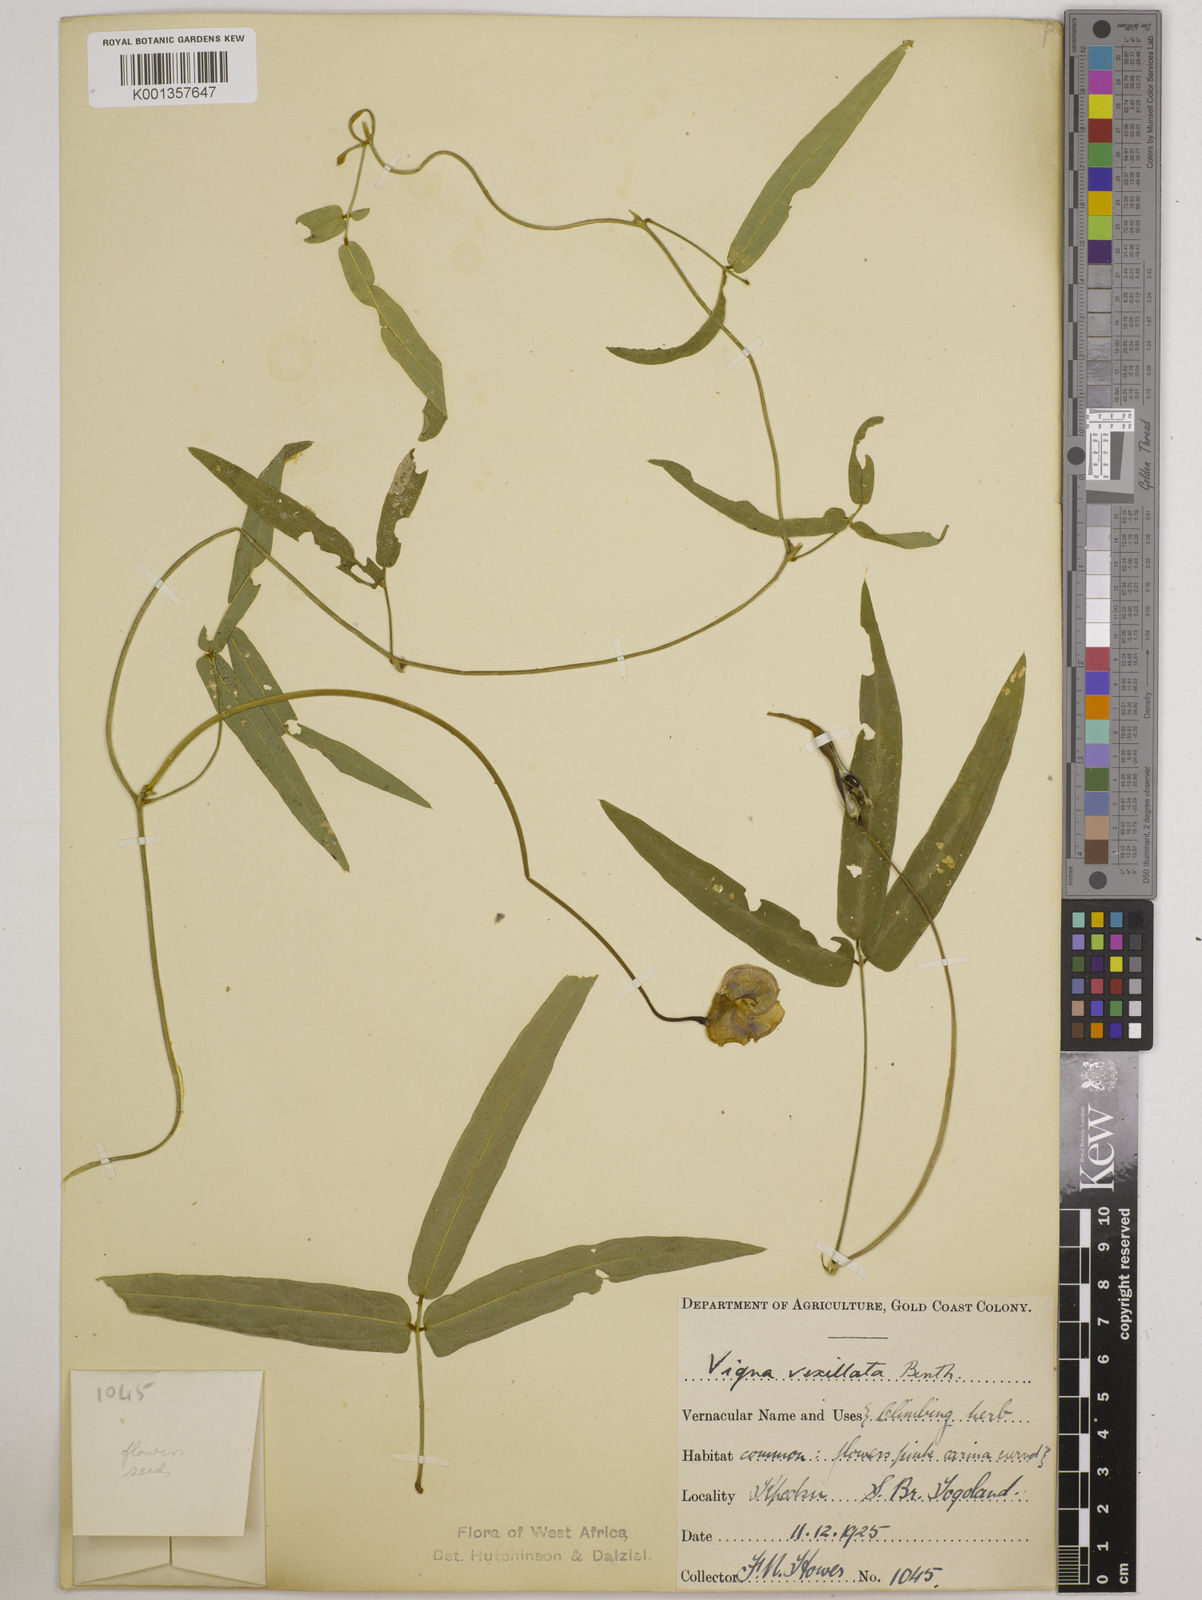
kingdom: Plantae
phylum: Tracheophyta
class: Magnoliopsida
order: Fabales
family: Fabaceae
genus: Vigna
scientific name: Vigna vexillata
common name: Zombi pea
